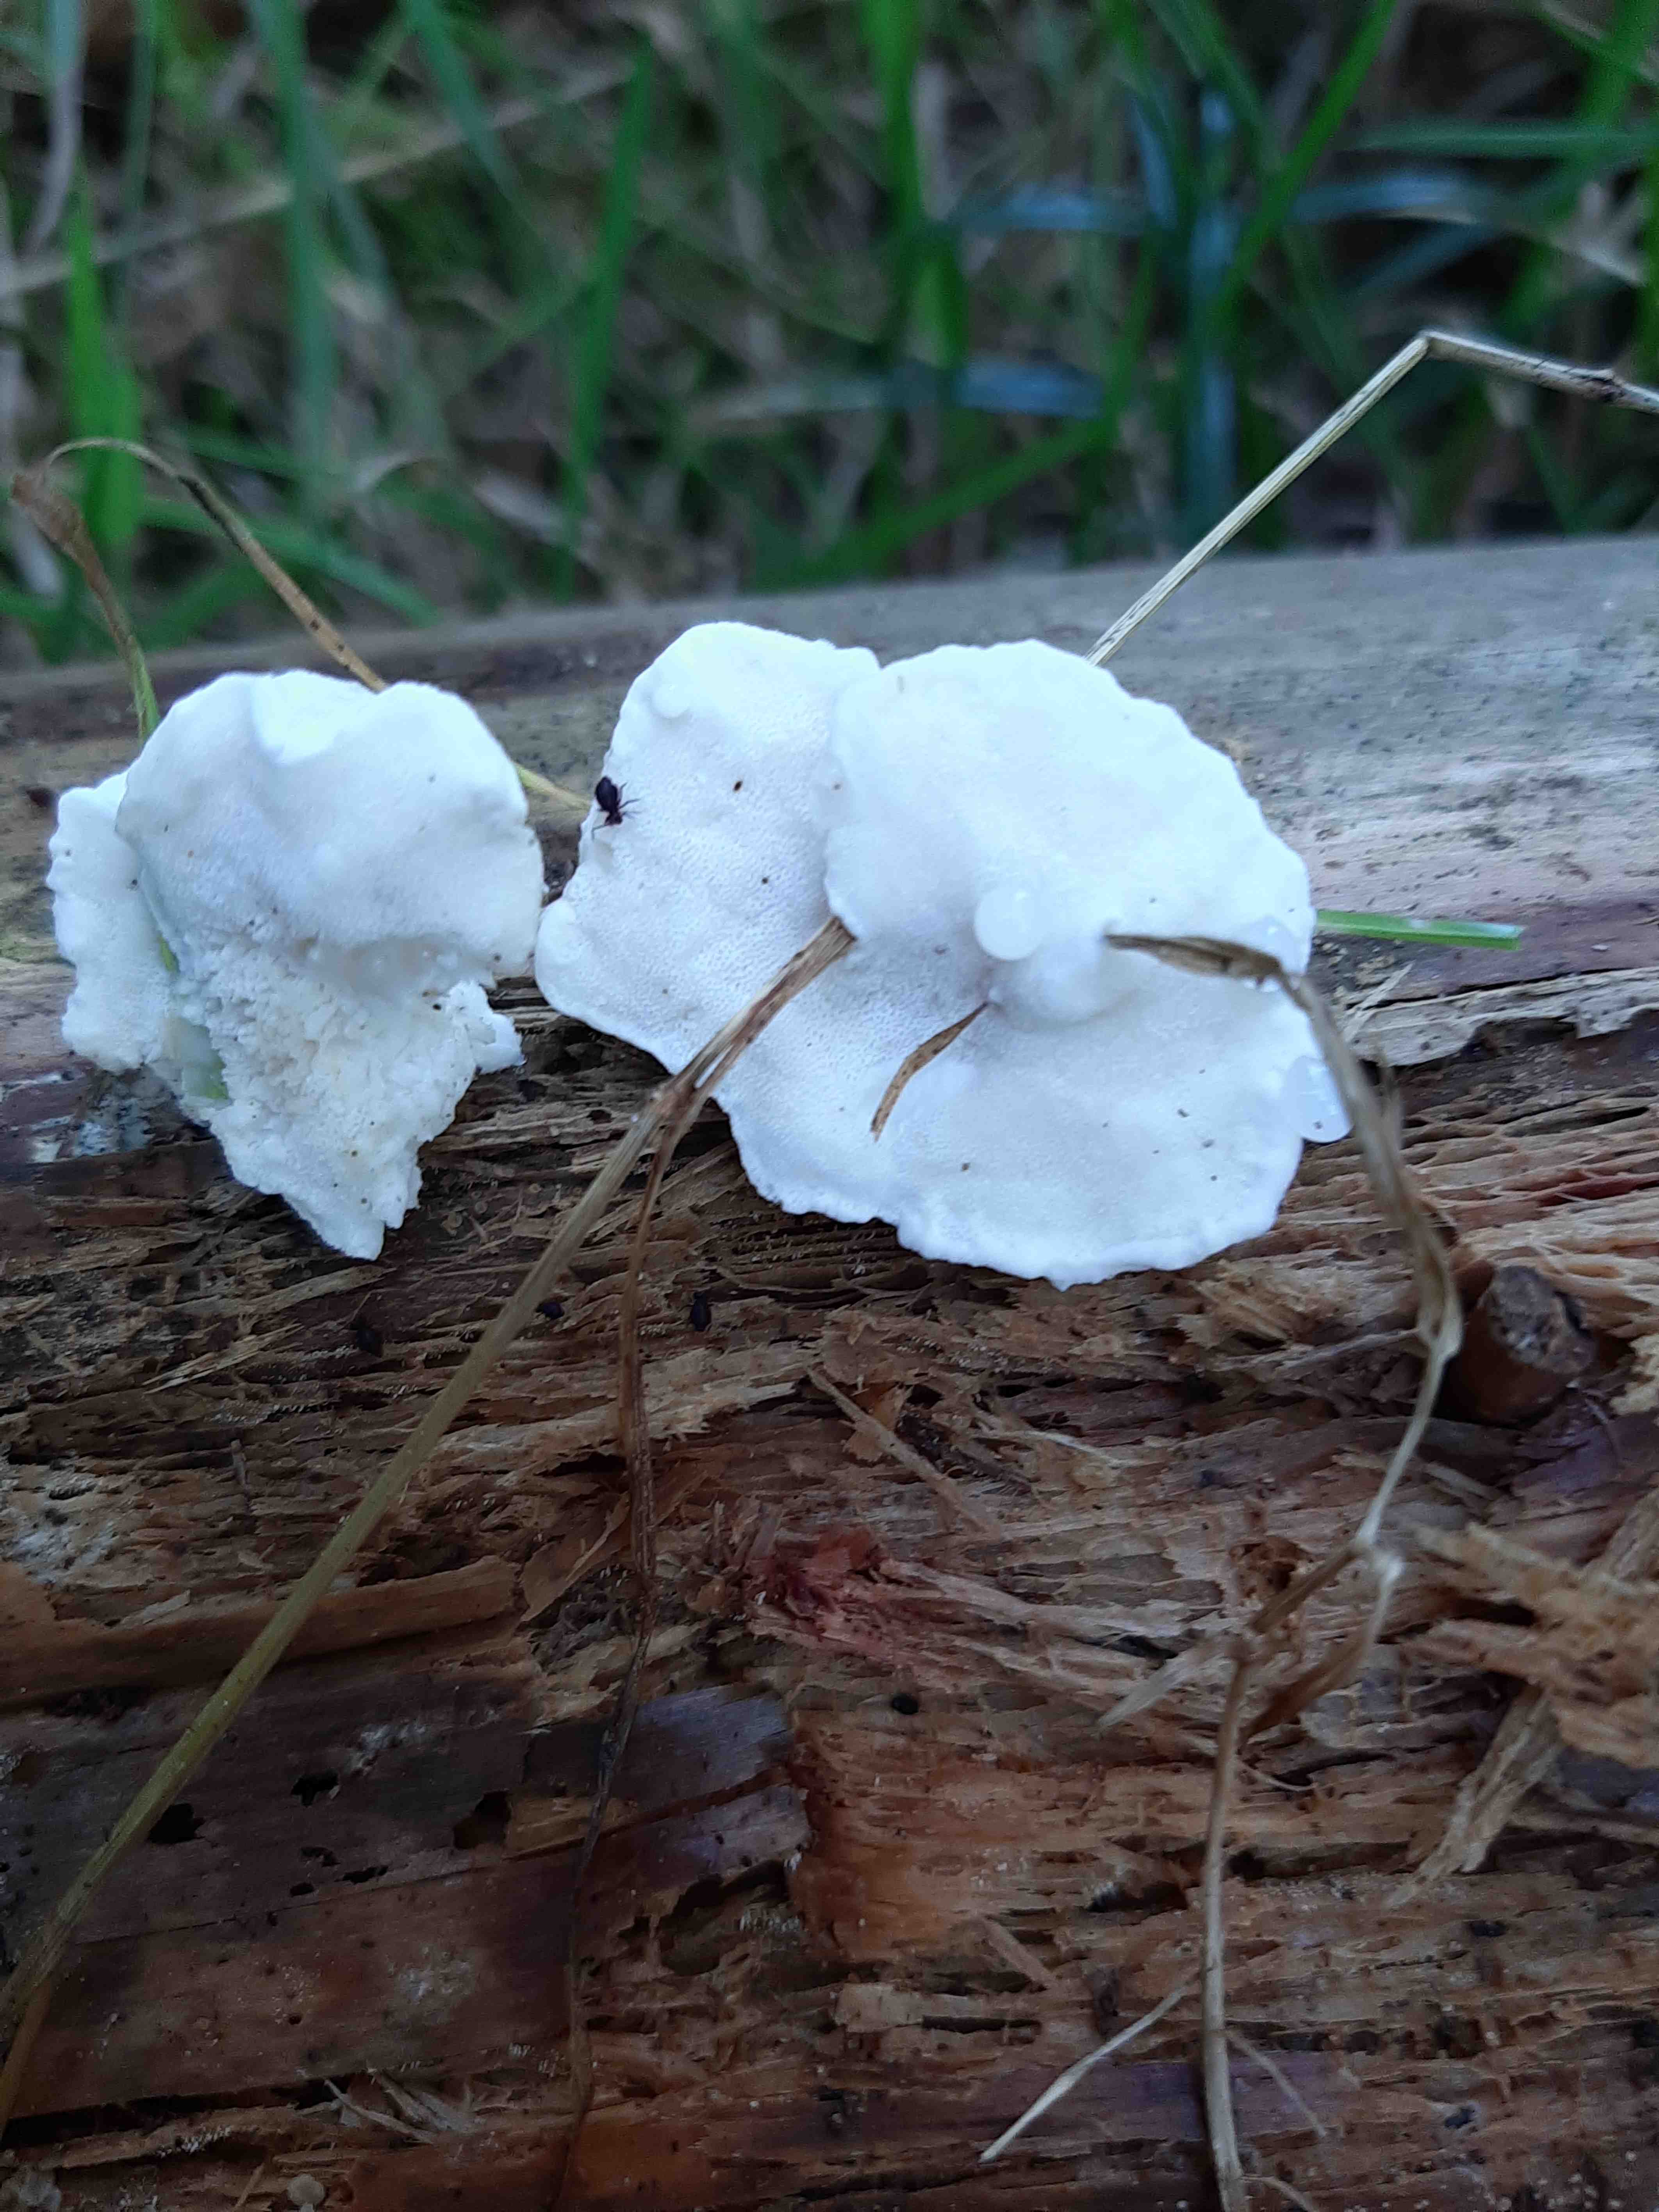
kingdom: Fungi
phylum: Basidiomycota
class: Agaricomycetes
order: Polyporales
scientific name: Polyporales
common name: poresvampordenen
